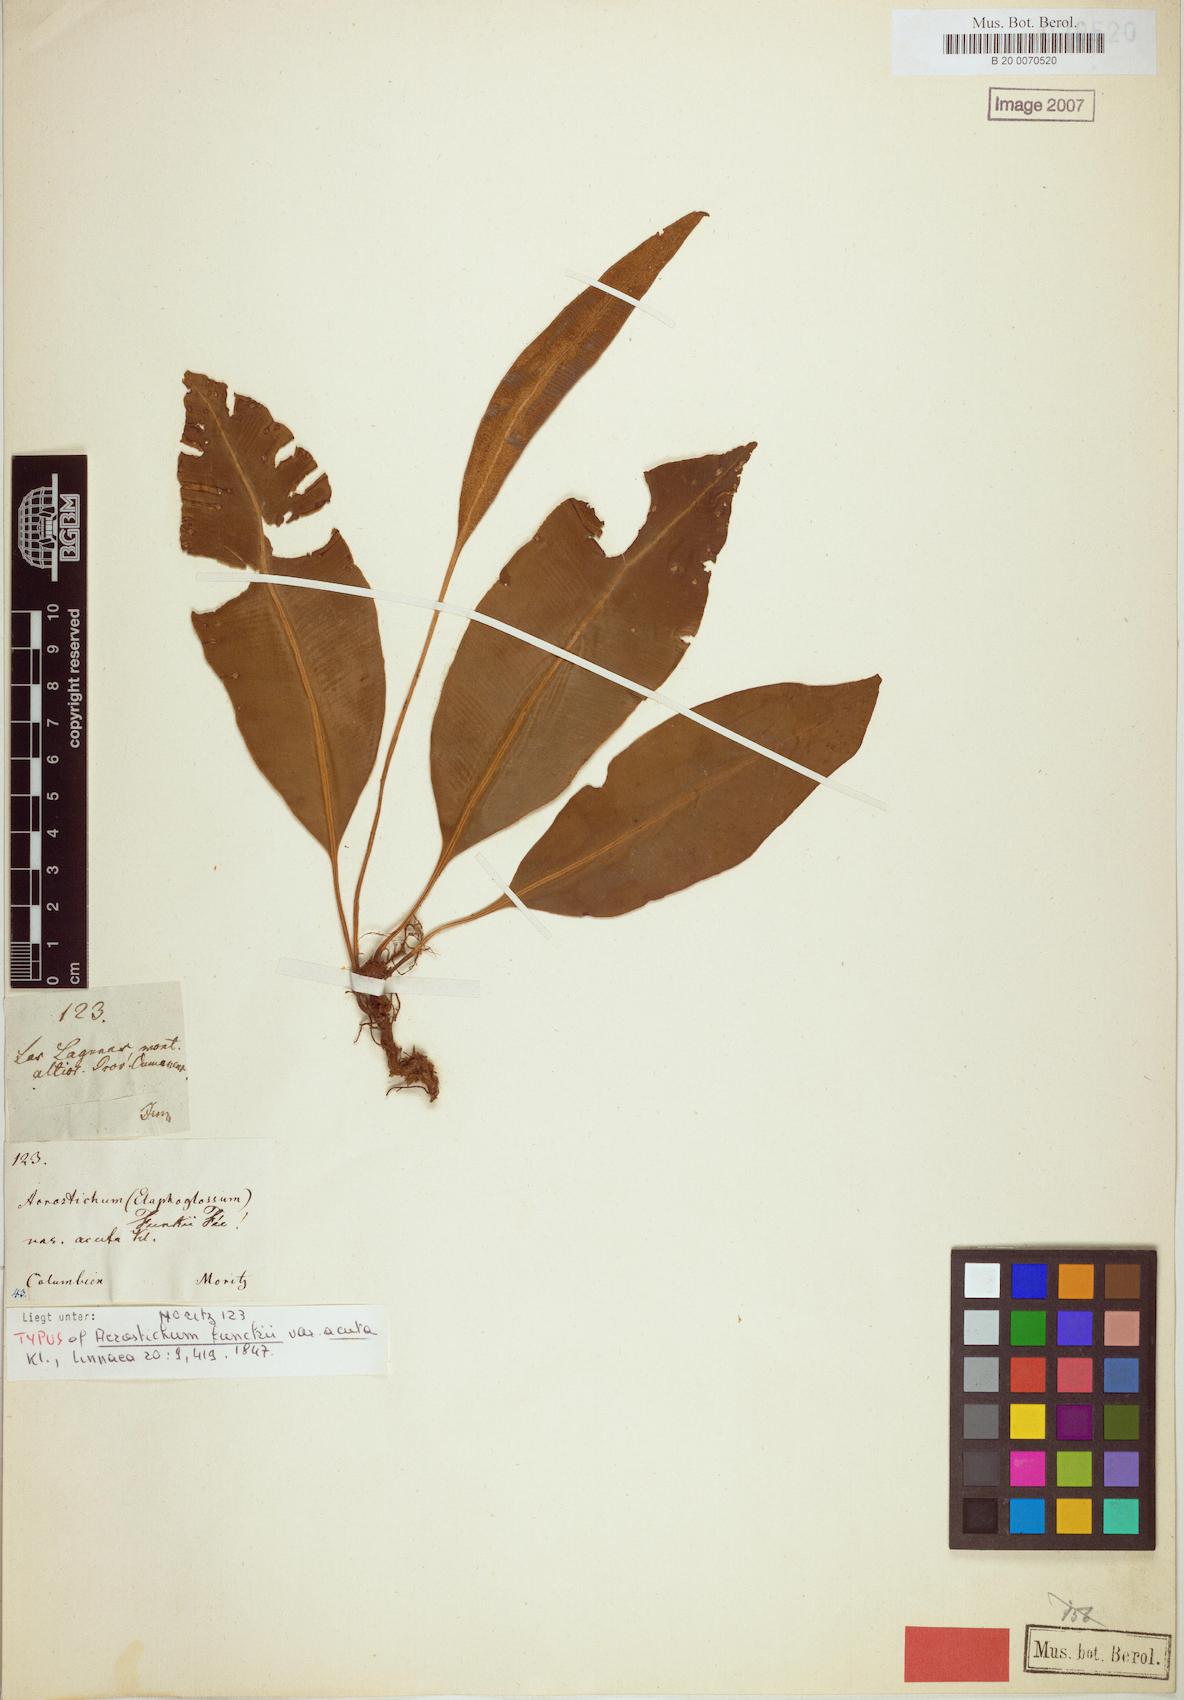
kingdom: Plantae
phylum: Tracheophyta
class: Polypodiopsida
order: Polypodiales
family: Dryopteridaceae
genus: Elaphoglossum
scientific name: Elaphoglossum lindigii
